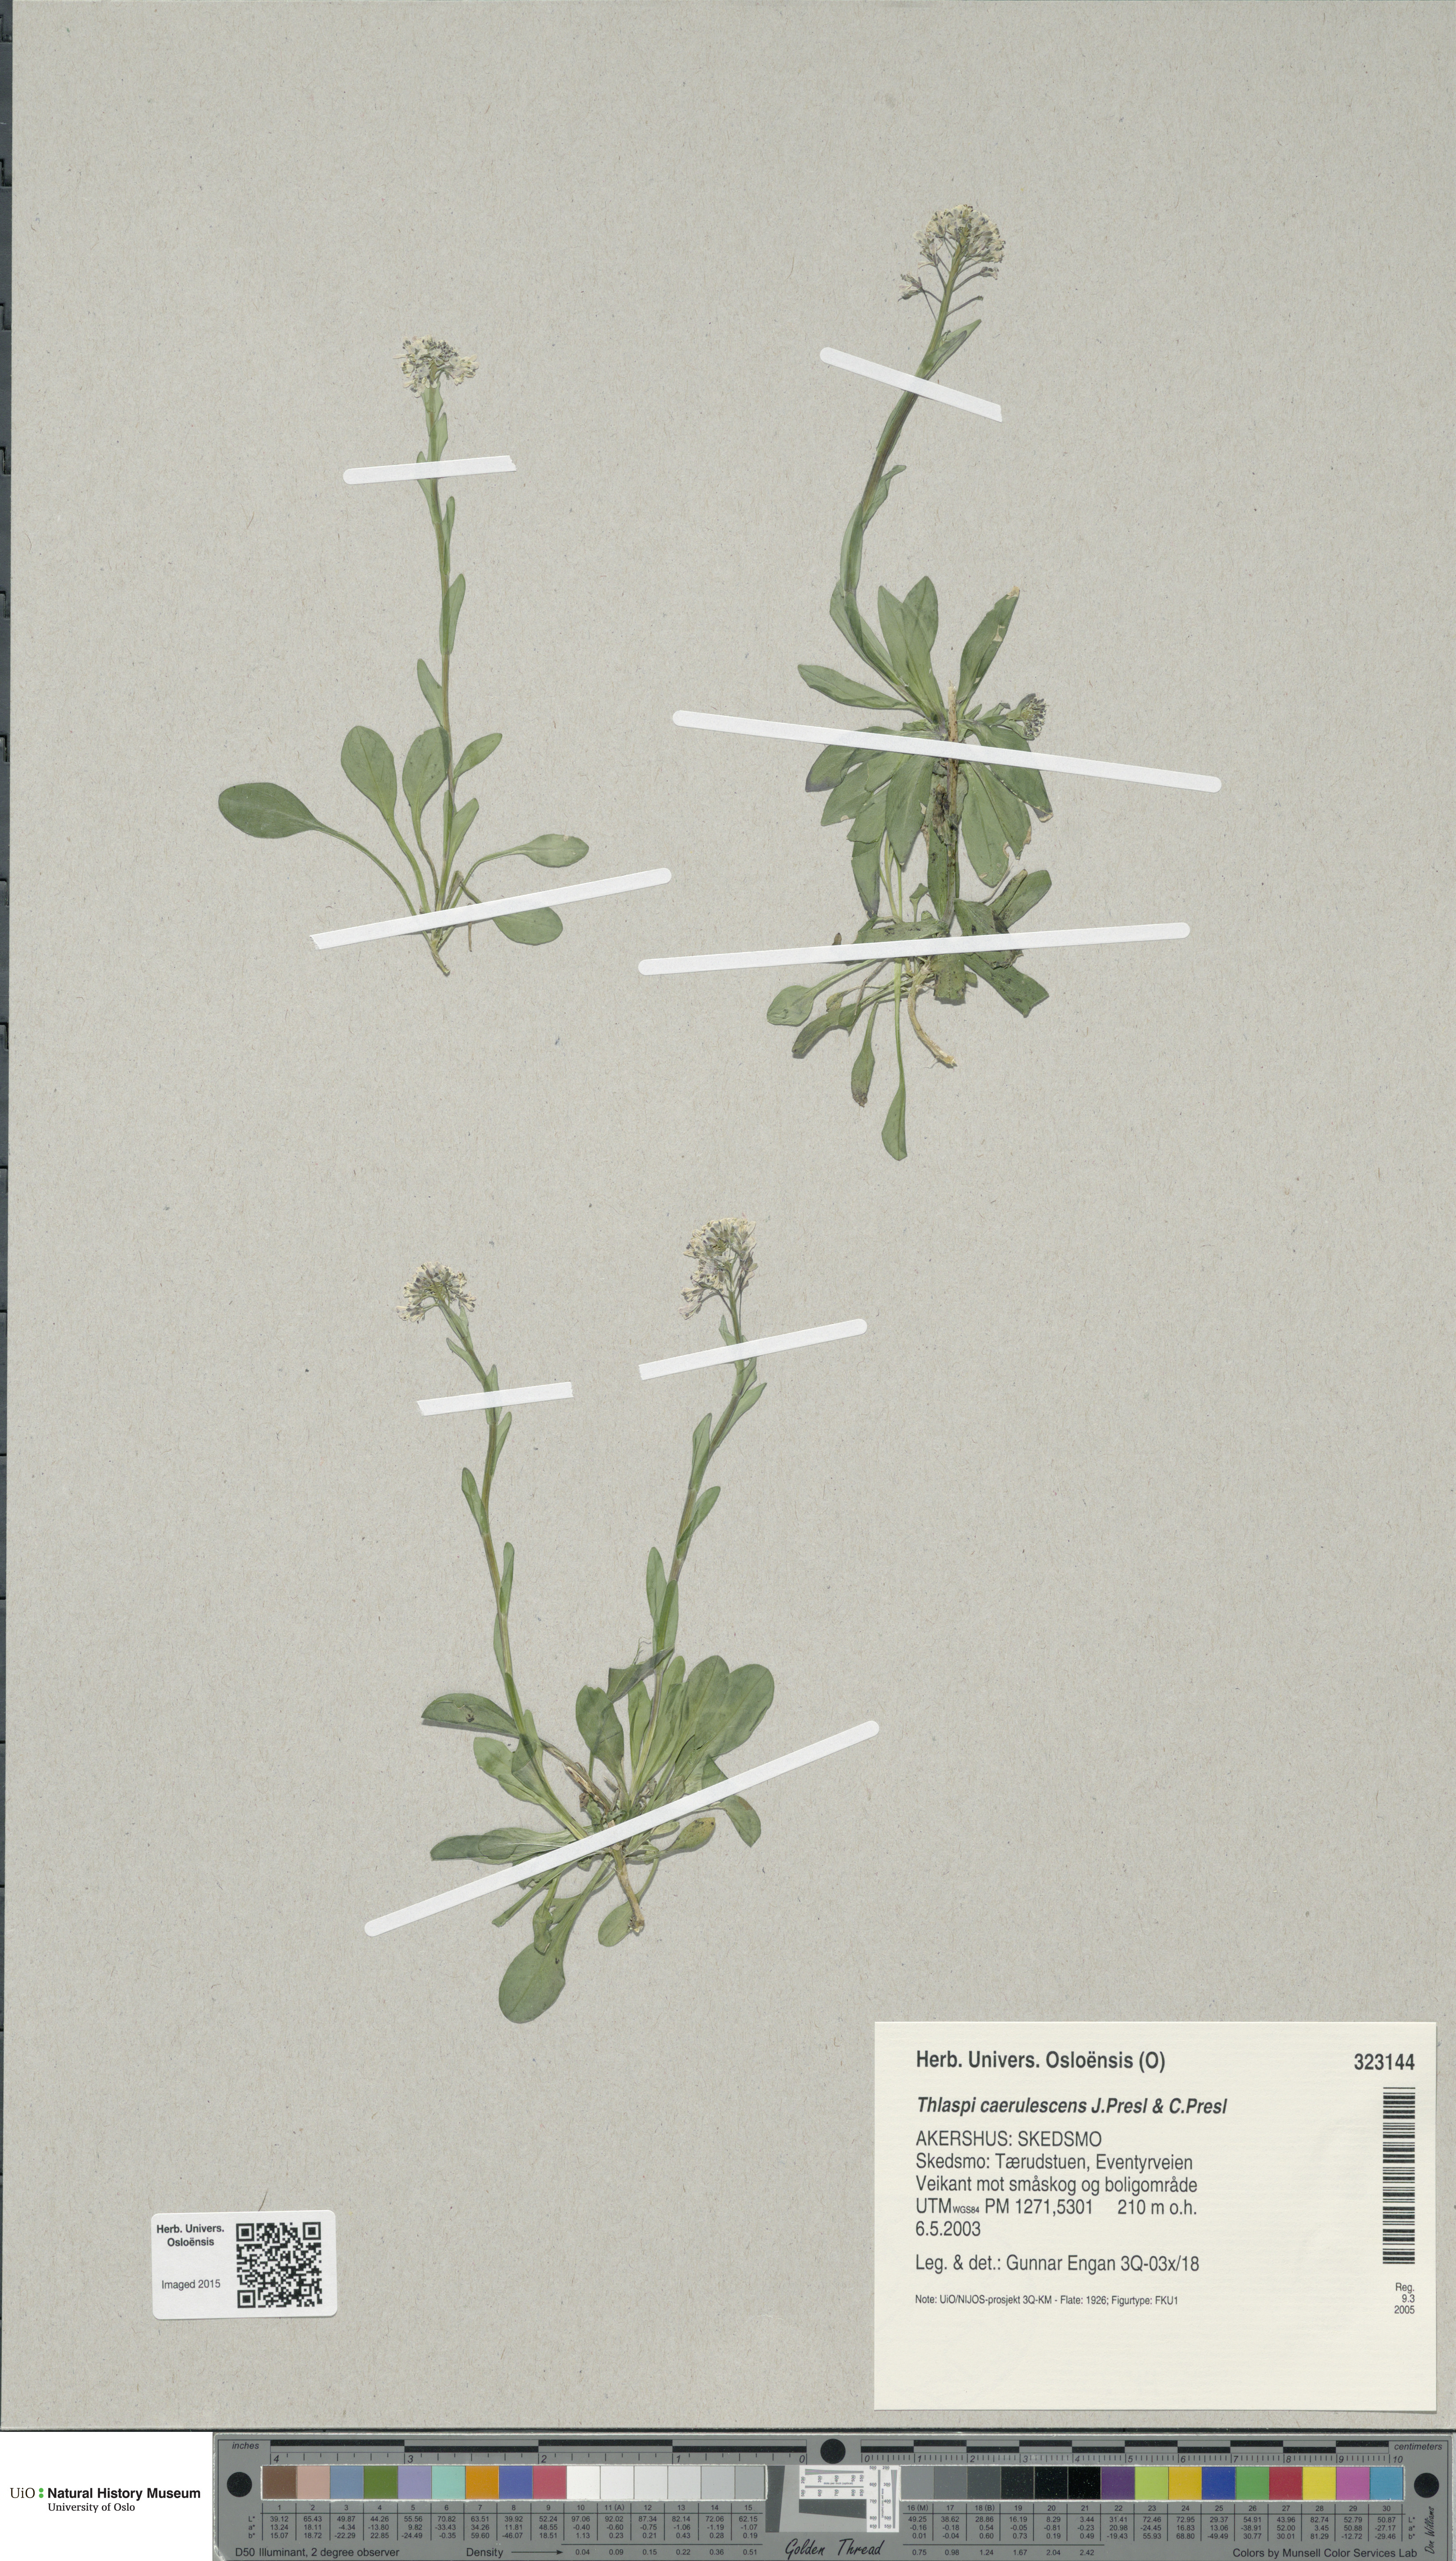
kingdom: Plantae
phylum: Tracheophyta
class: Magnoliopsida
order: Brassicales
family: Brassicaceae
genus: Noccaea
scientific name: Noccaea caerulescens
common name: Alpine pennycress
